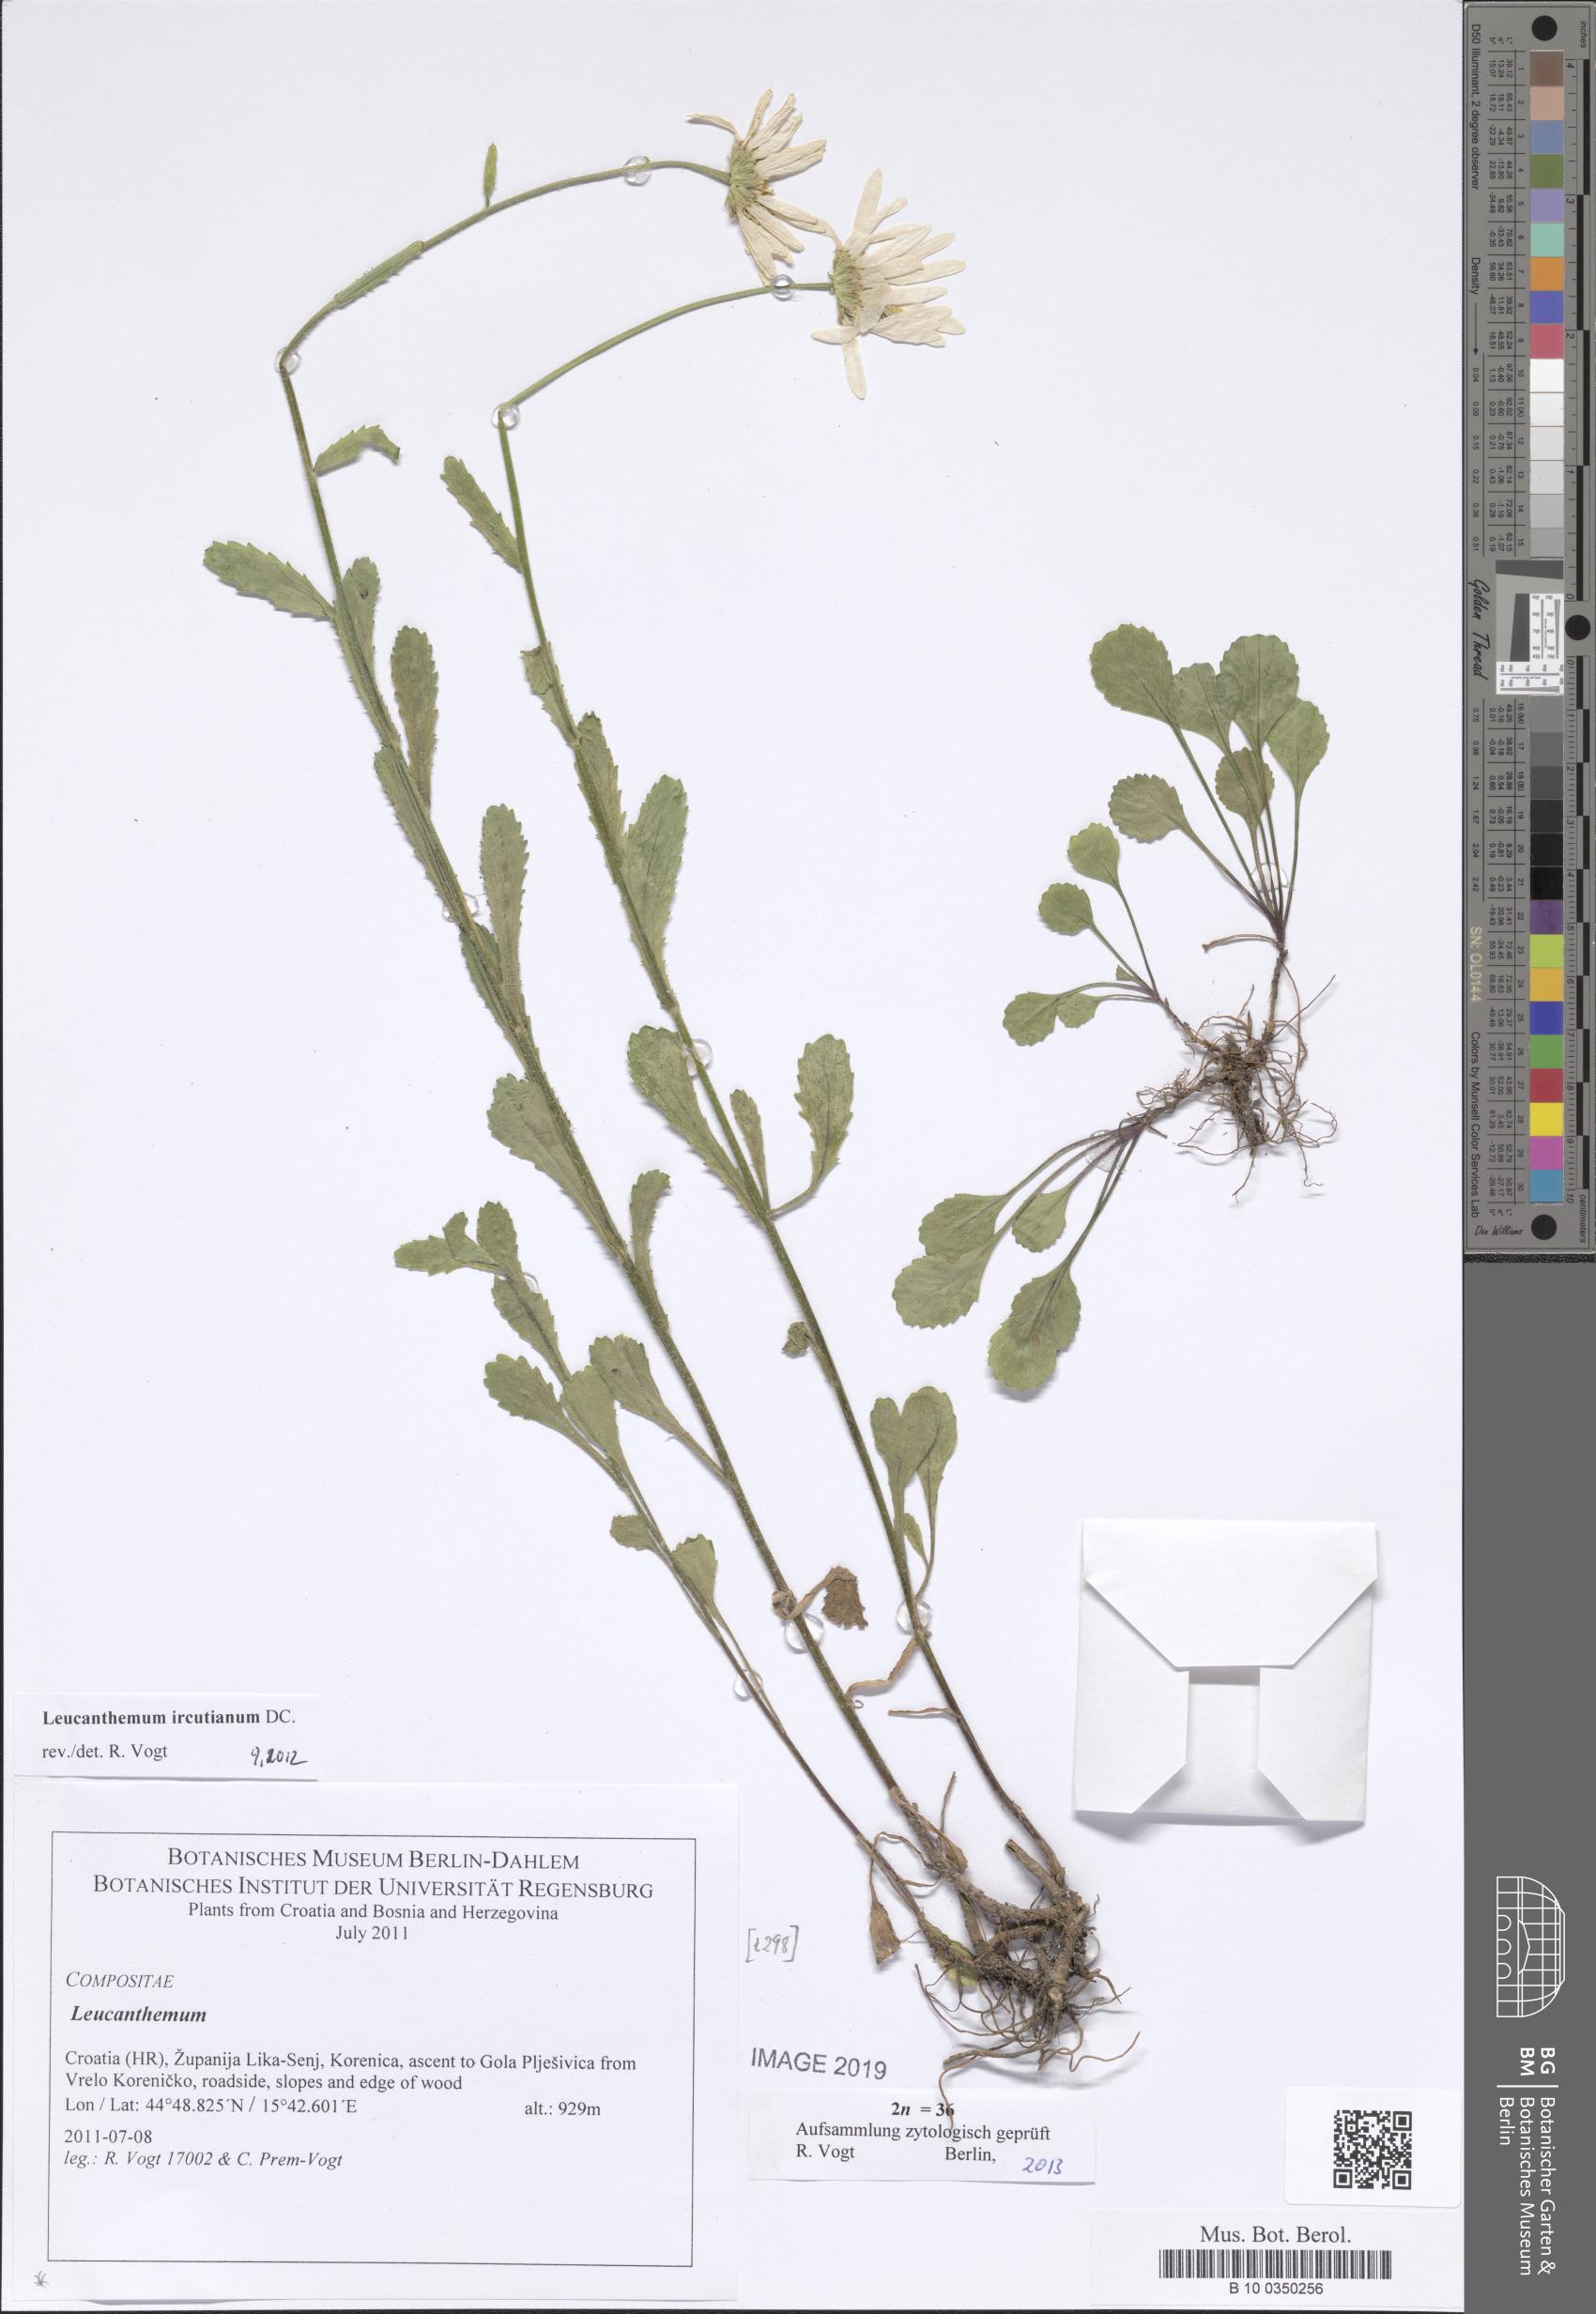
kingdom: Plantae
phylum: Tracheophyta
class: Magnoliopsida
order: Asterales
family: Asteraceae
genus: Leucanthemum
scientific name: Leucanthemum ircutianum
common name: Daisy
